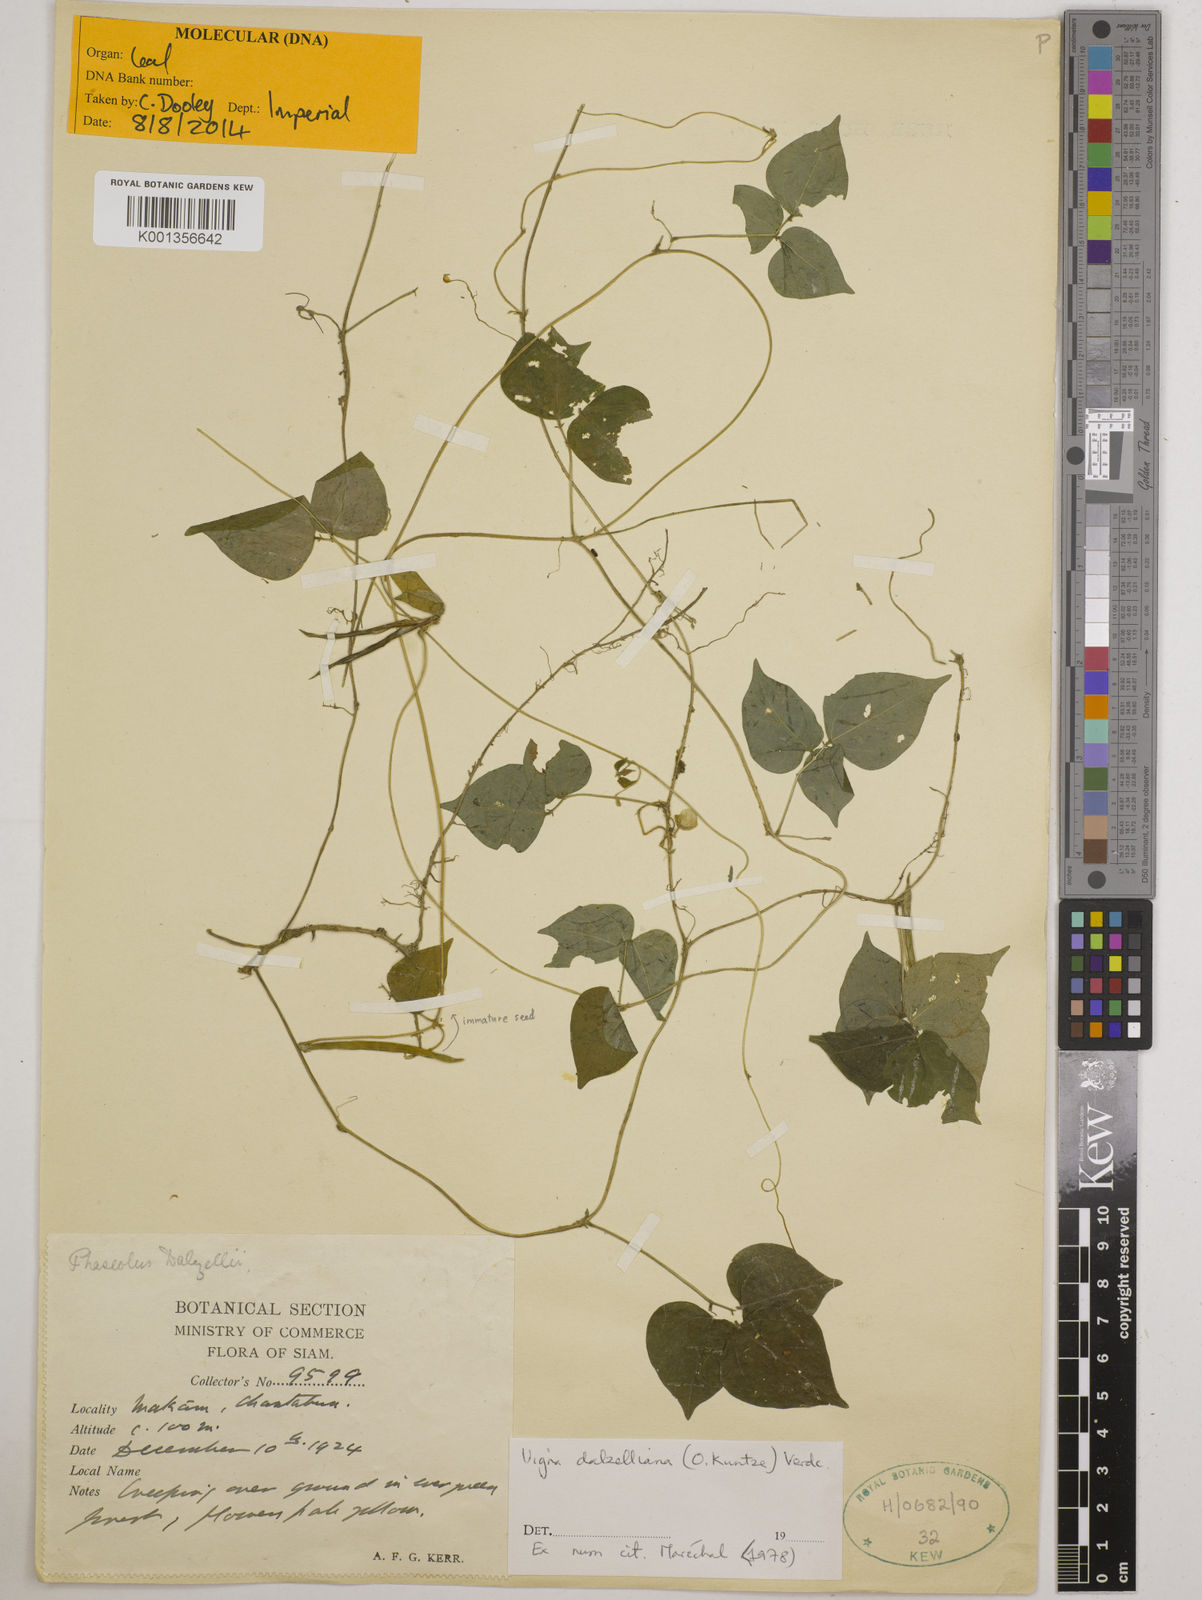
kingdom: Plantae
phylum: Tracheophyta
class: Magnoliopsida
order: Fabales
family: Fabaceae
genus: Vigna
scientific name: Vigna dalzelliana
